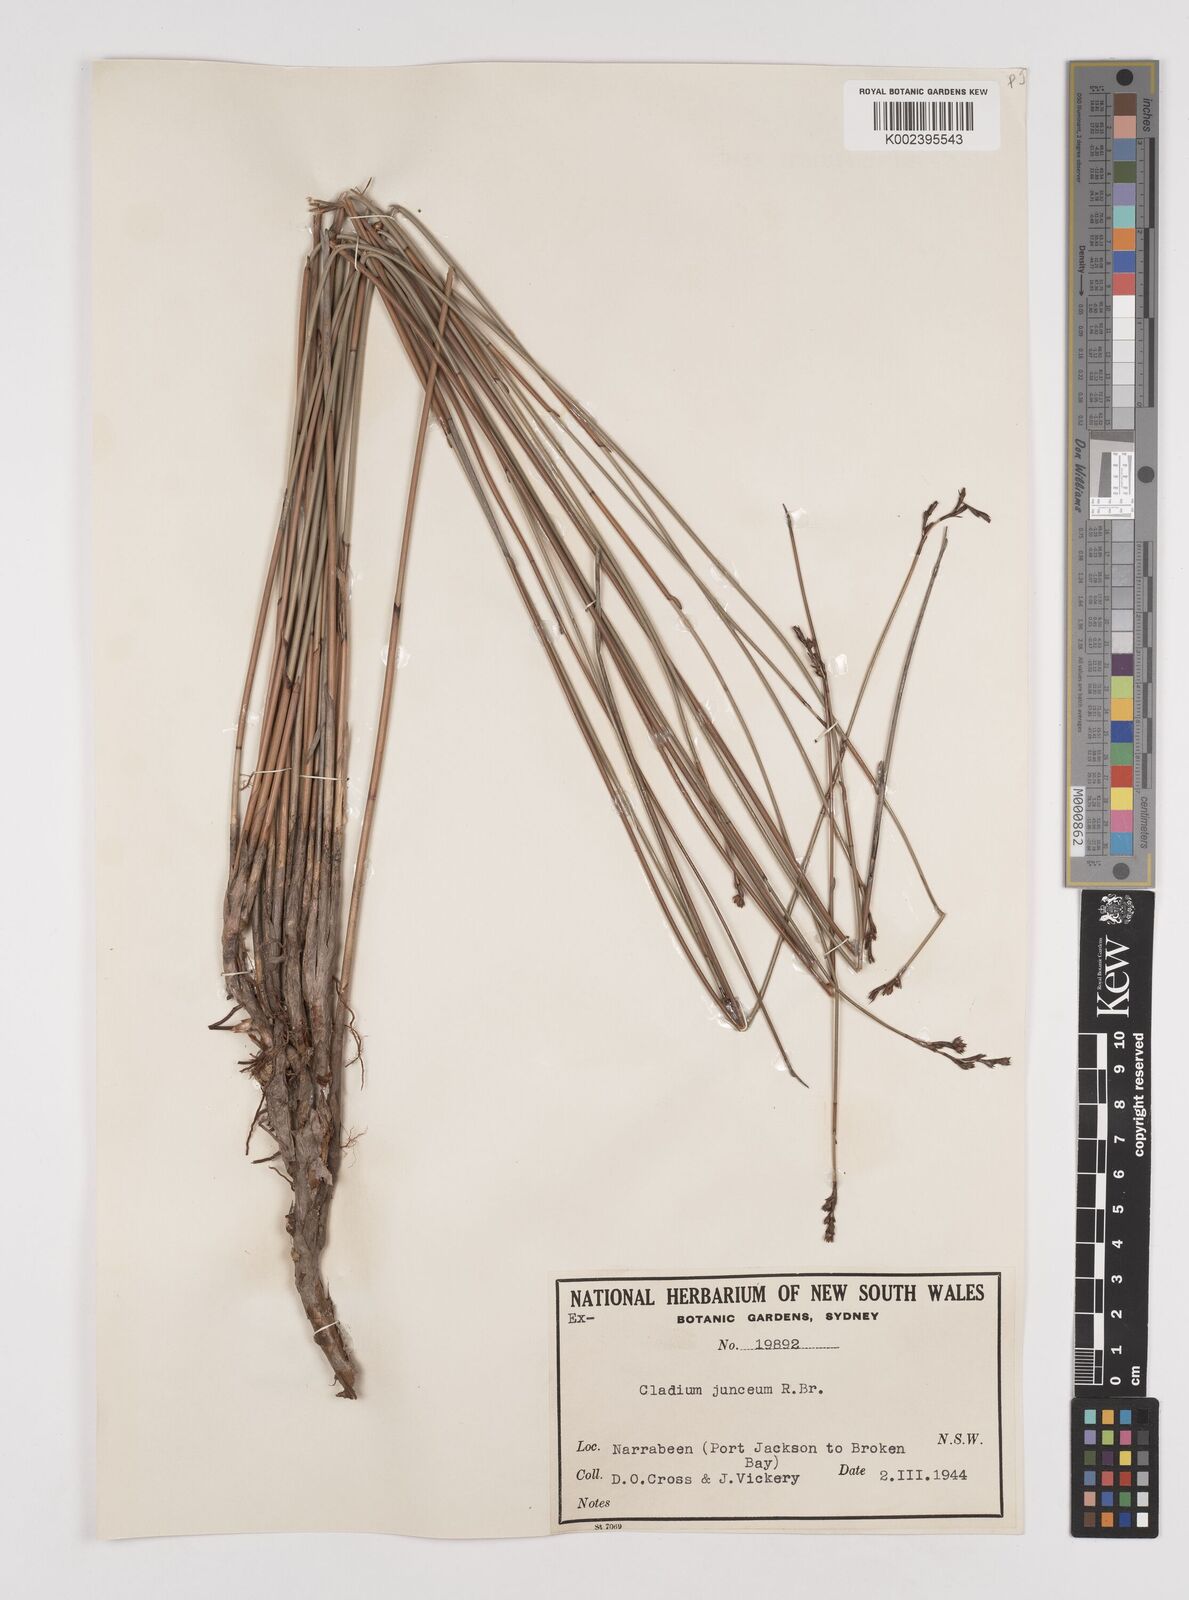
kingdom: Plantae
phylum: Tracheophyta
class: Liliopsida
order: Poales
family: Cyperaceae
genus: Machaerina
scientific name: Machaerina juncea
